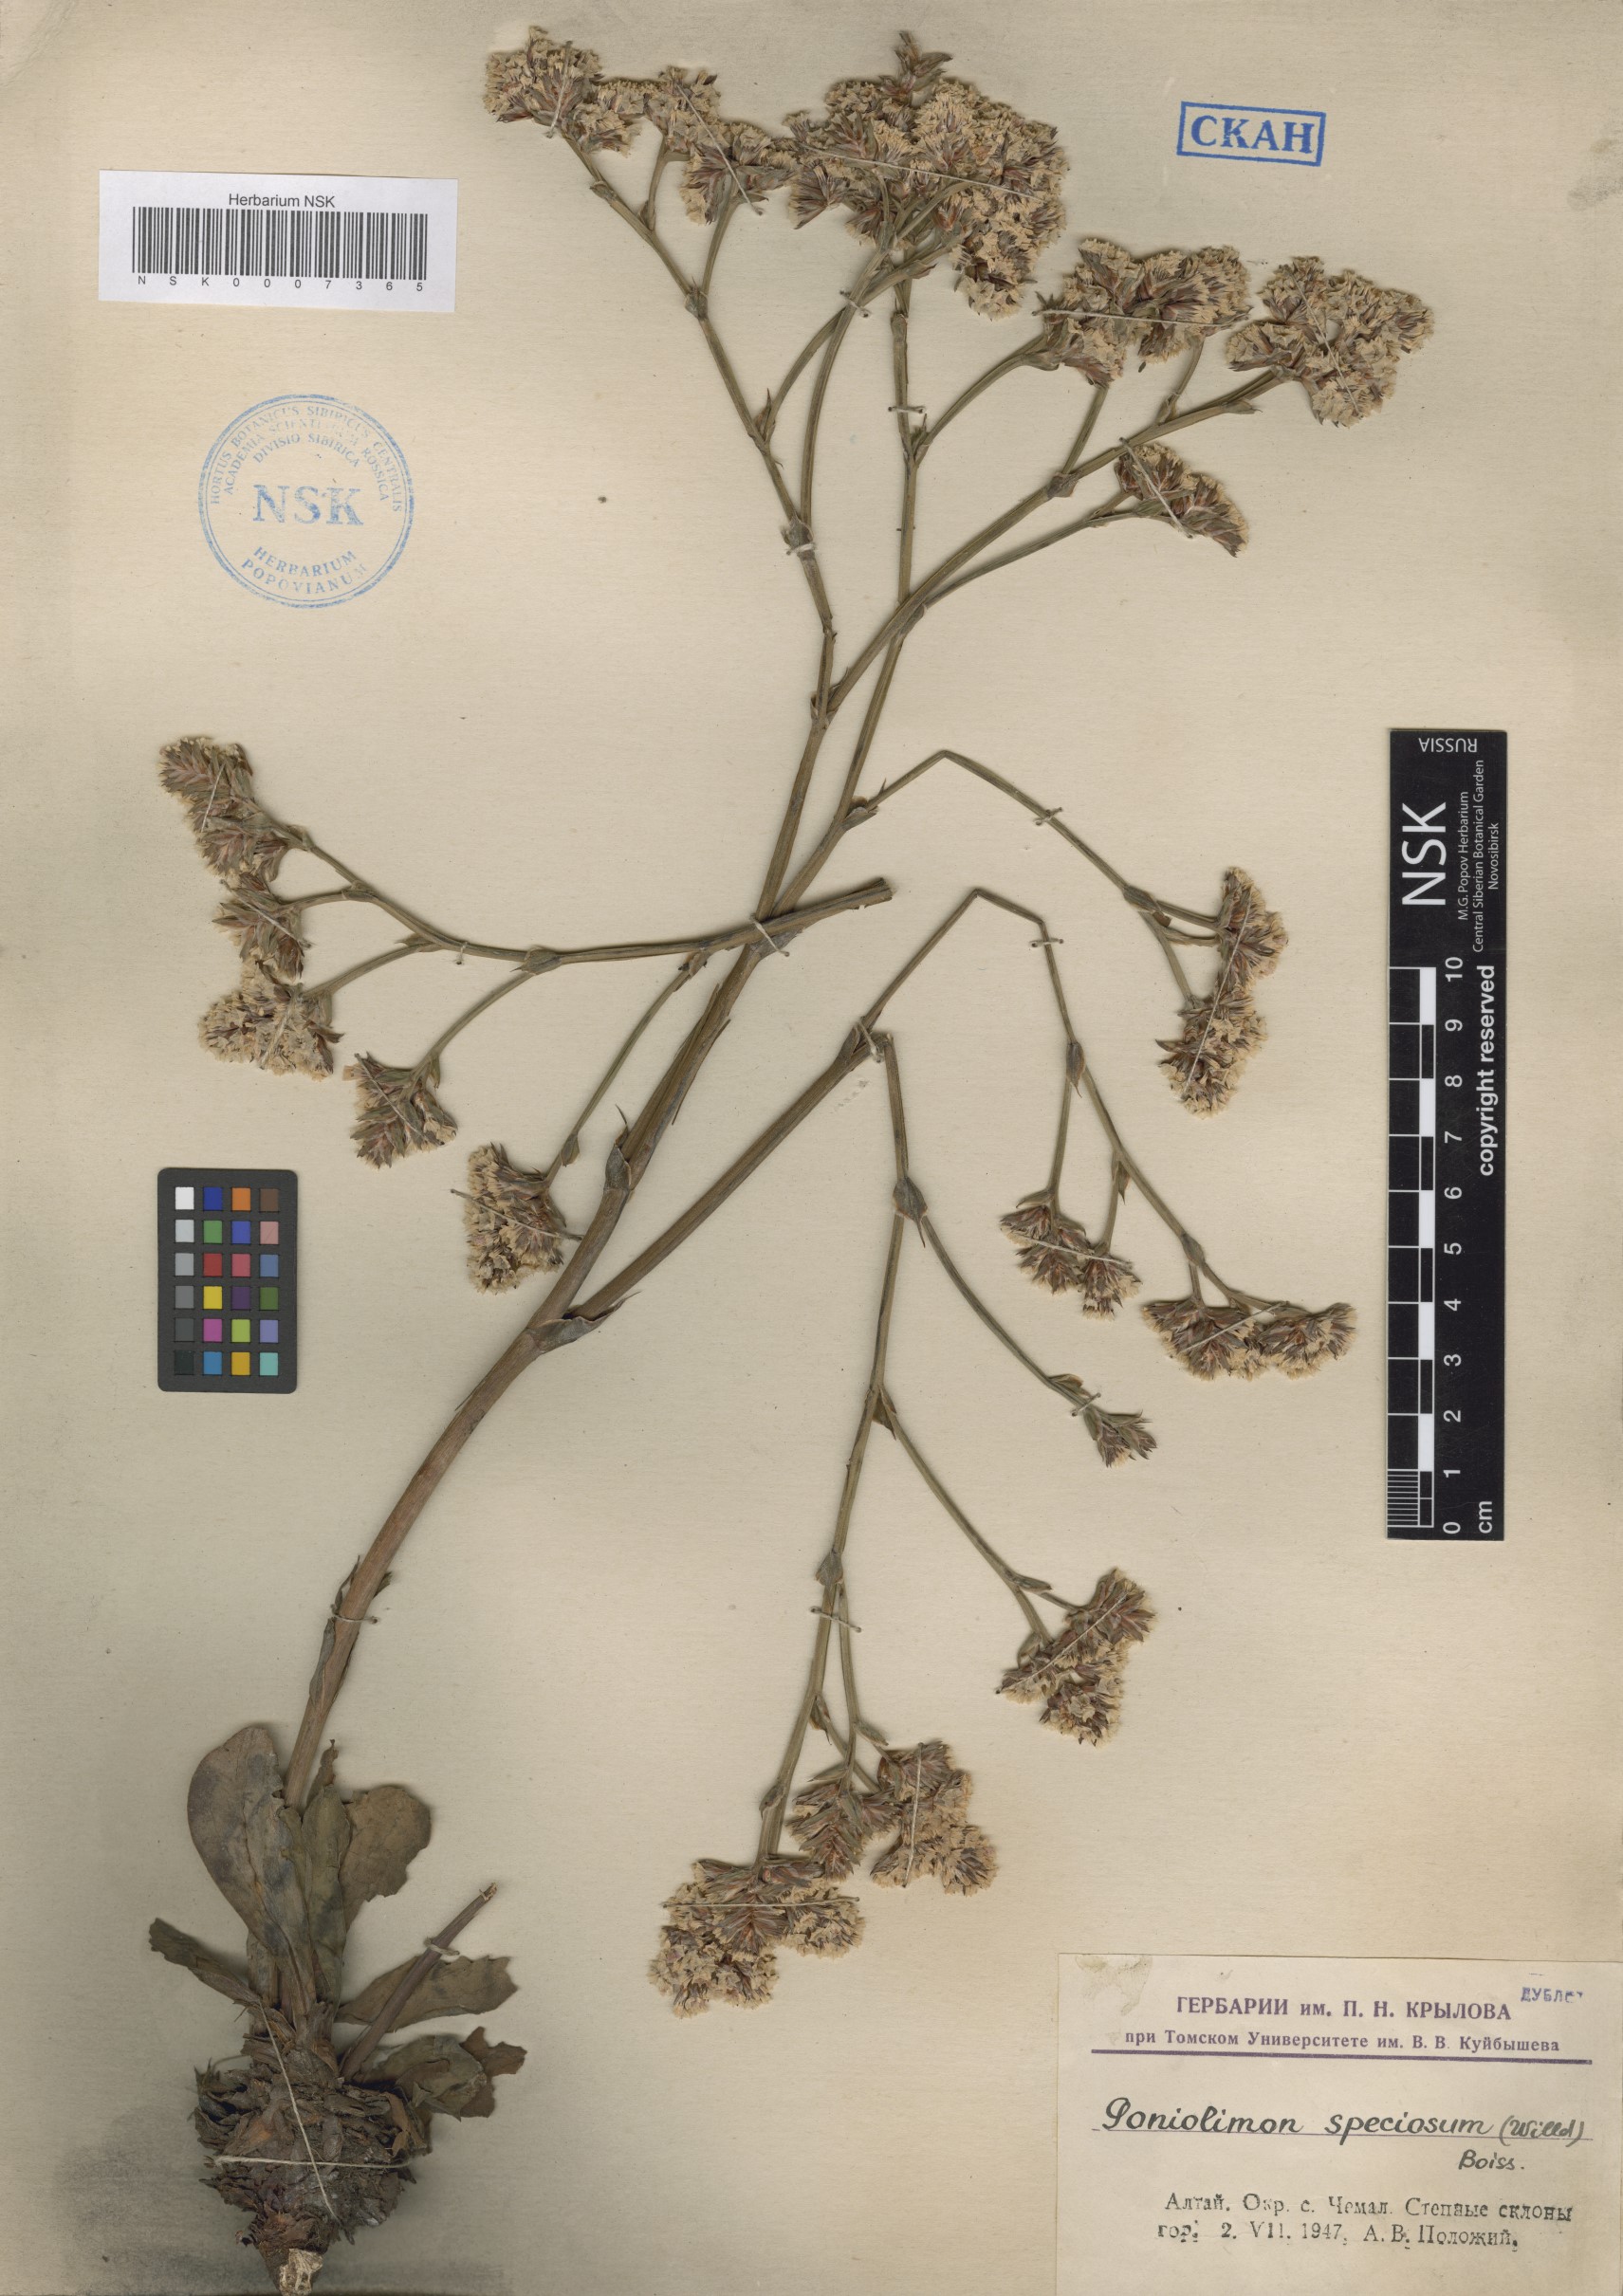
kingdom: Plantae
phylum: Tracheophyta
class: Magnoliopsida
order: Caryophyllales
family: Plumbaginaceae
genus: Goniolimon
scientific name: Goniolimon speciosum
